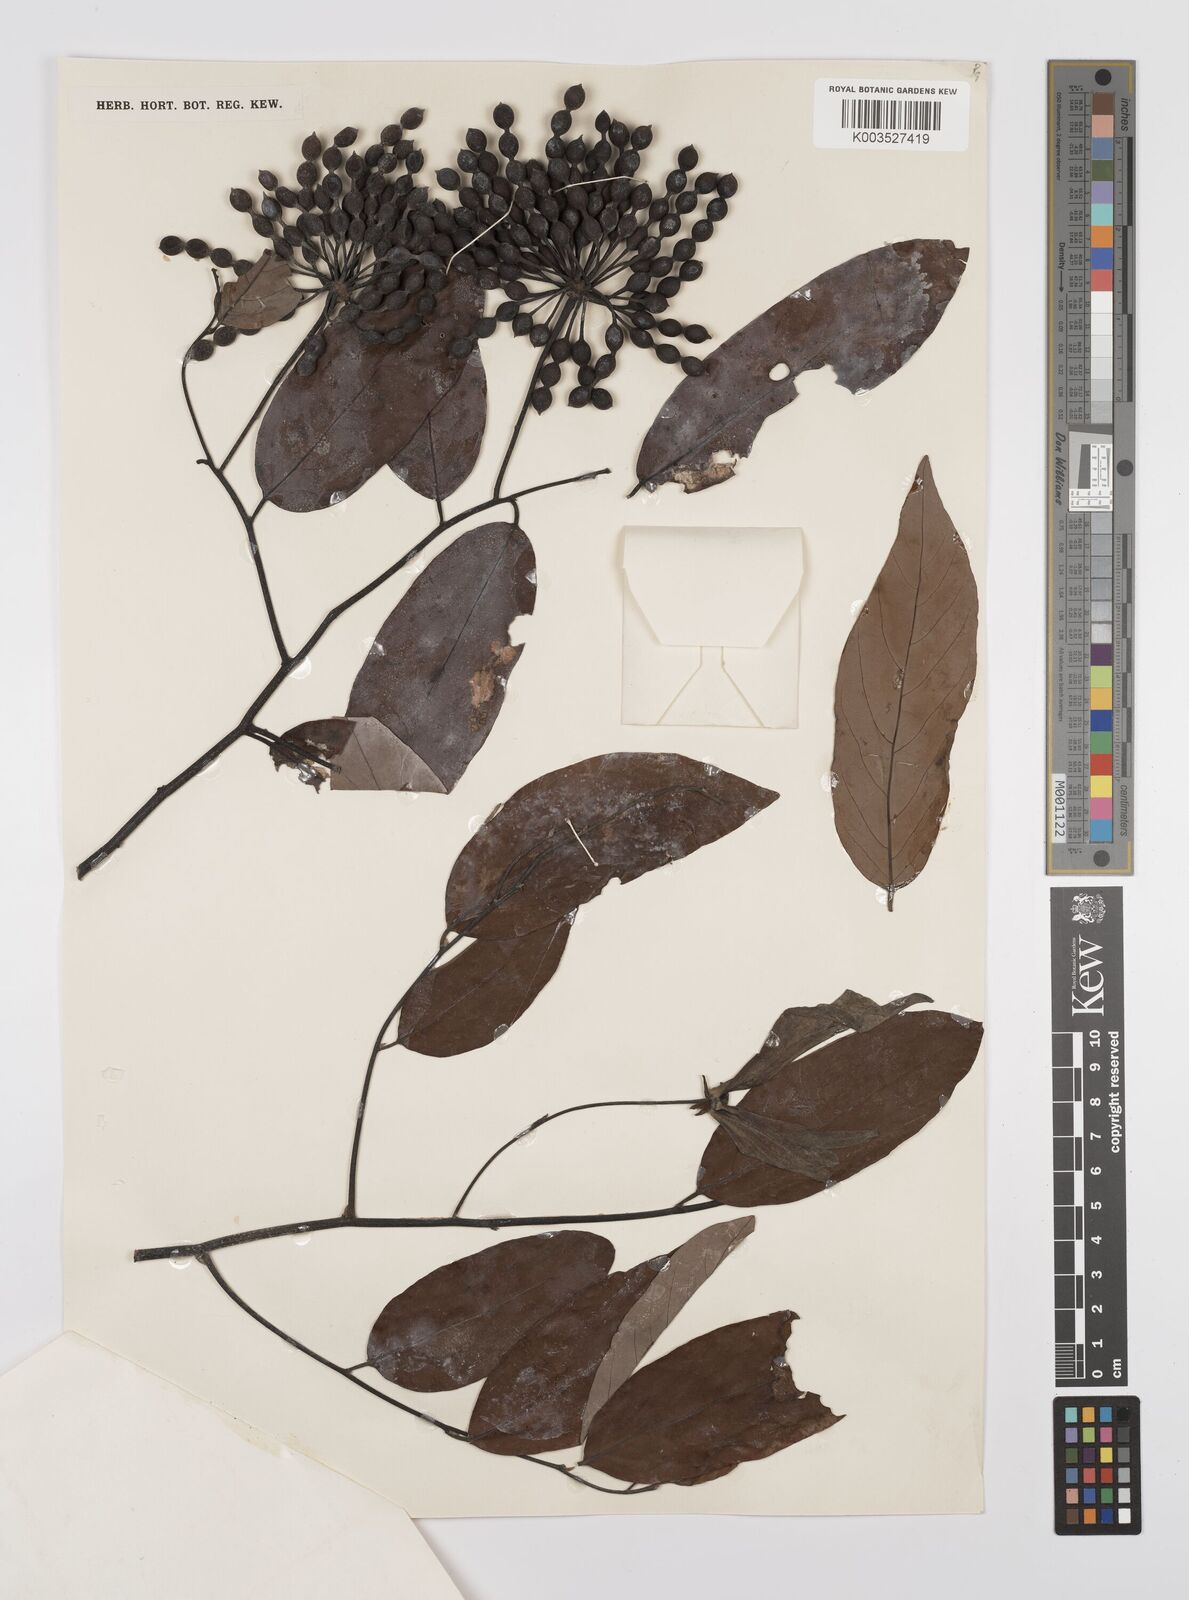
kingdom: Plantae
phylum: Tracheophyta
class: Magnoliopsida
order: Magnoliales
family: Annonaceae
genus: Desmos
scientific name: Desmos chinensis
